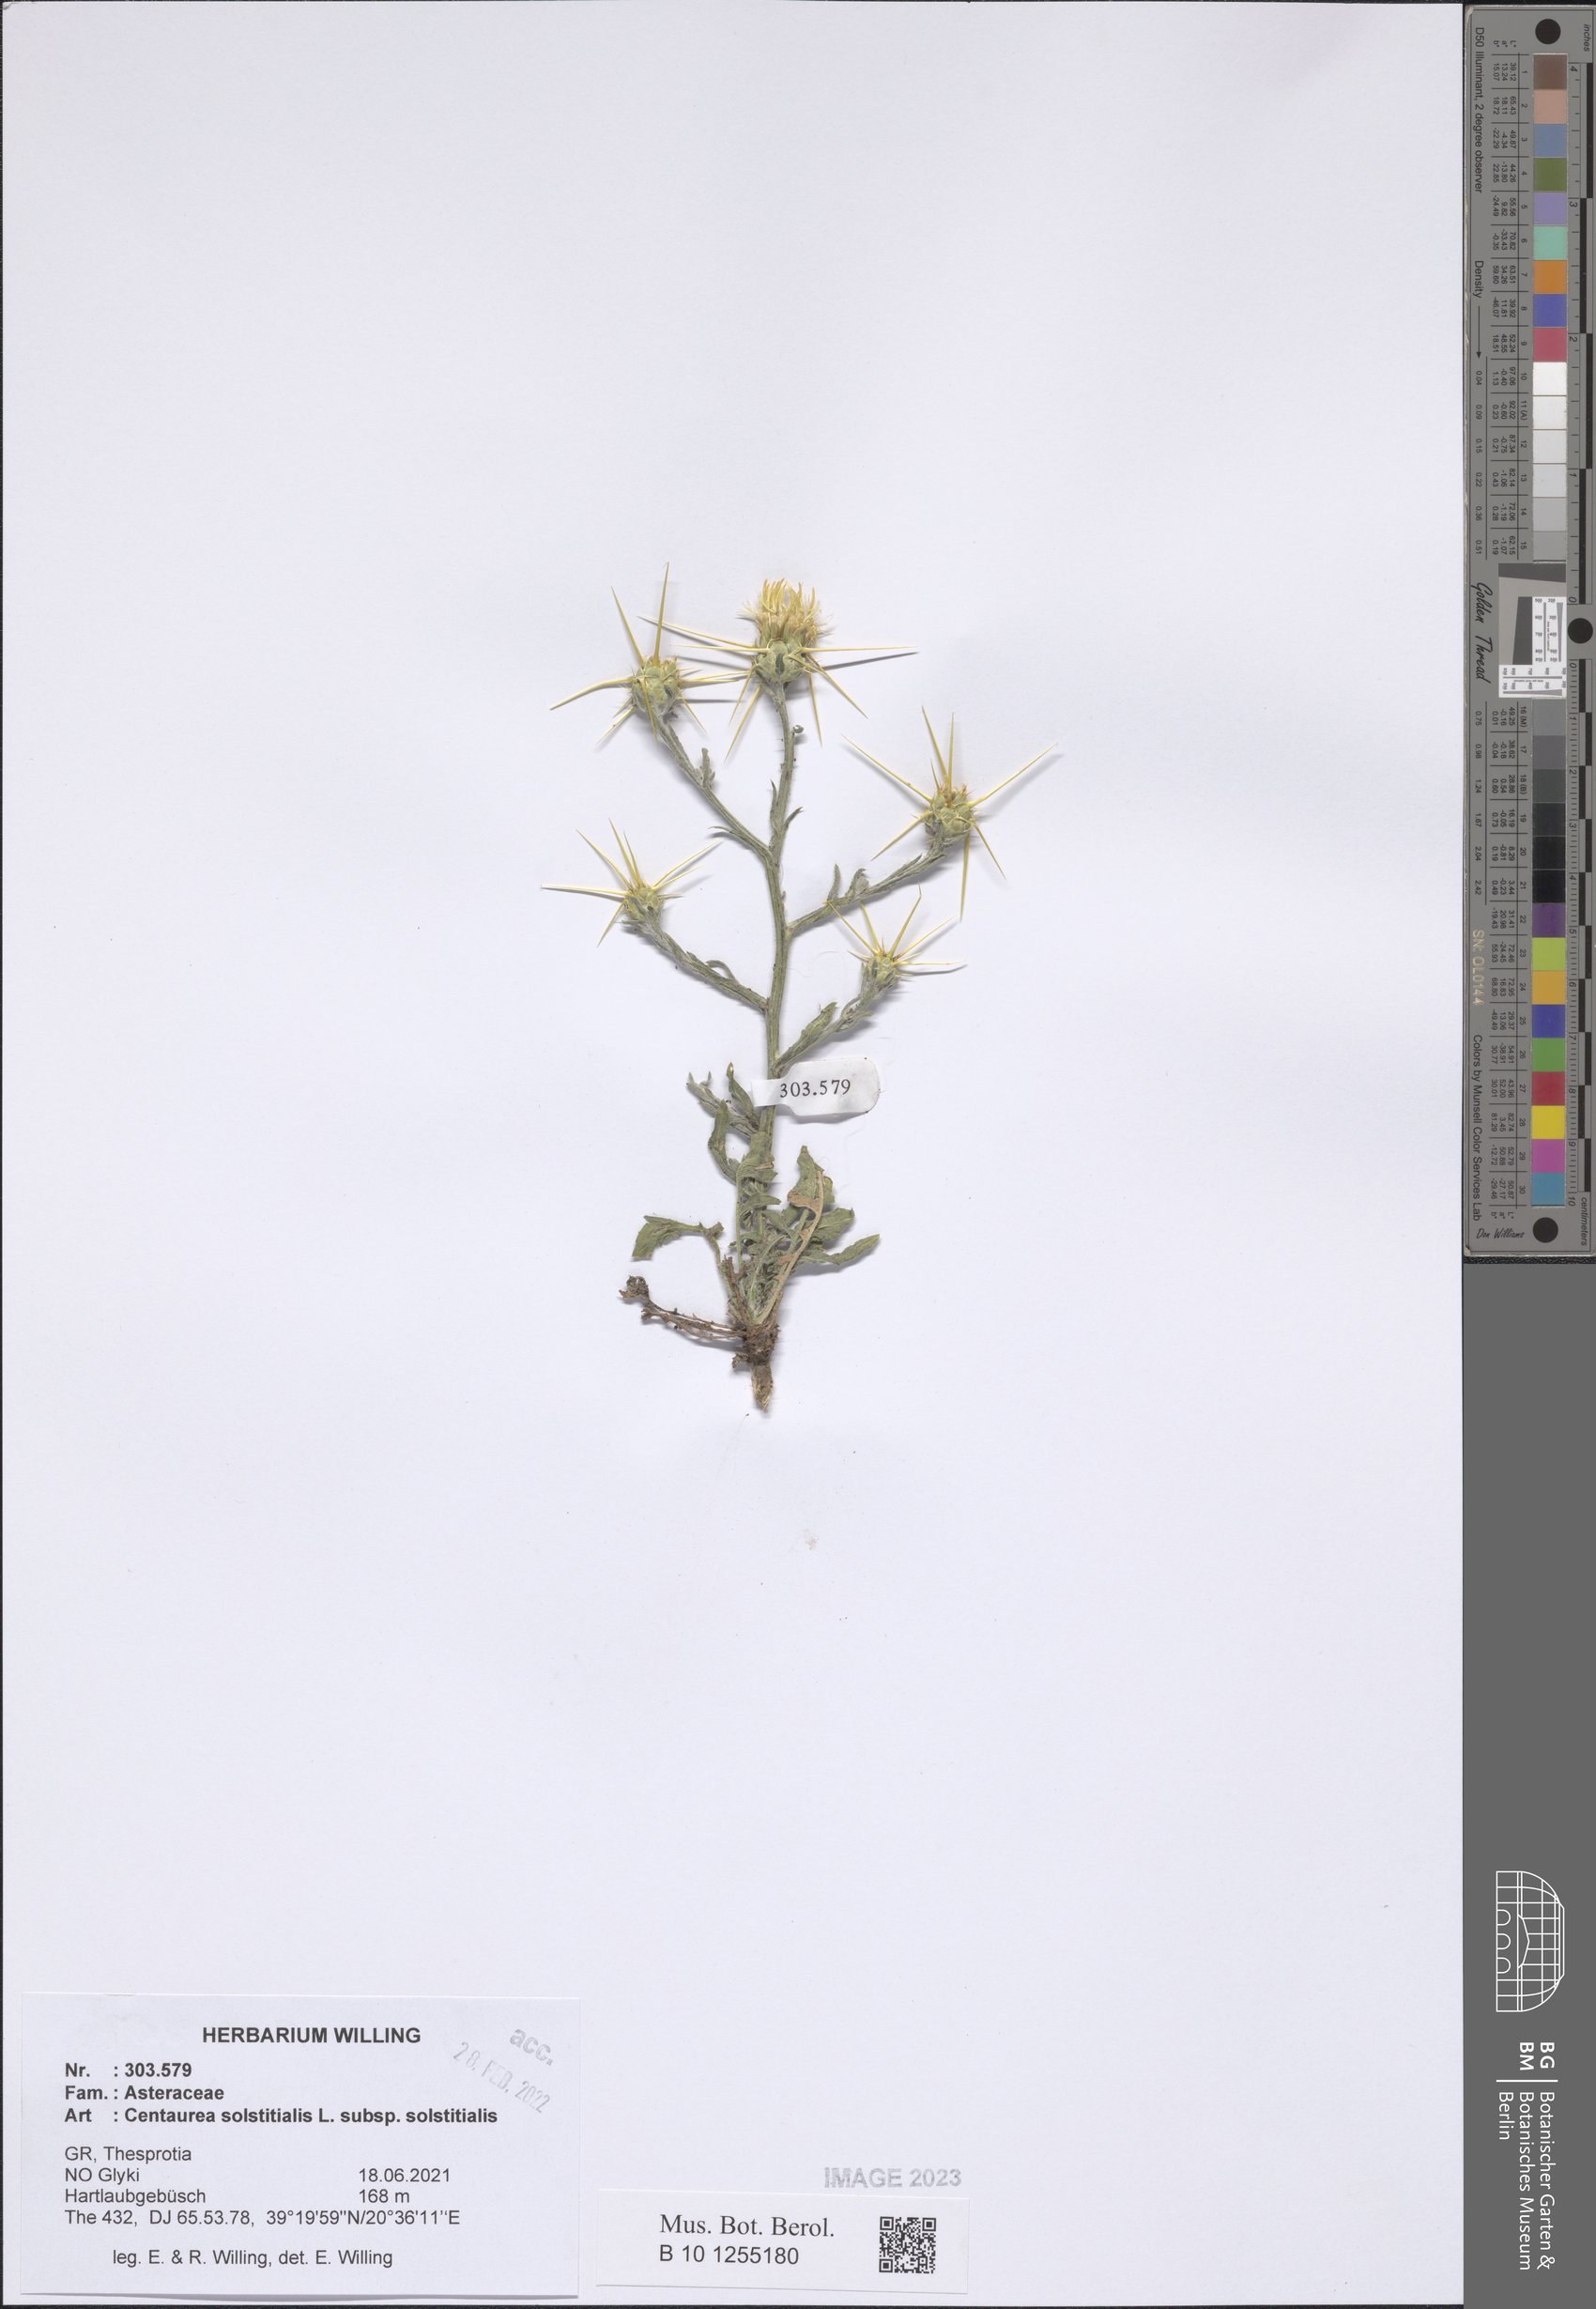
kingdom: Plantae
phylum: Tracheophyta
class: Magnoliopsida
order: Asterales
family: Asteraceae
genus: Centaurea
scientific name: Centaurea solstitialis
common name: Yellow star-thistle
